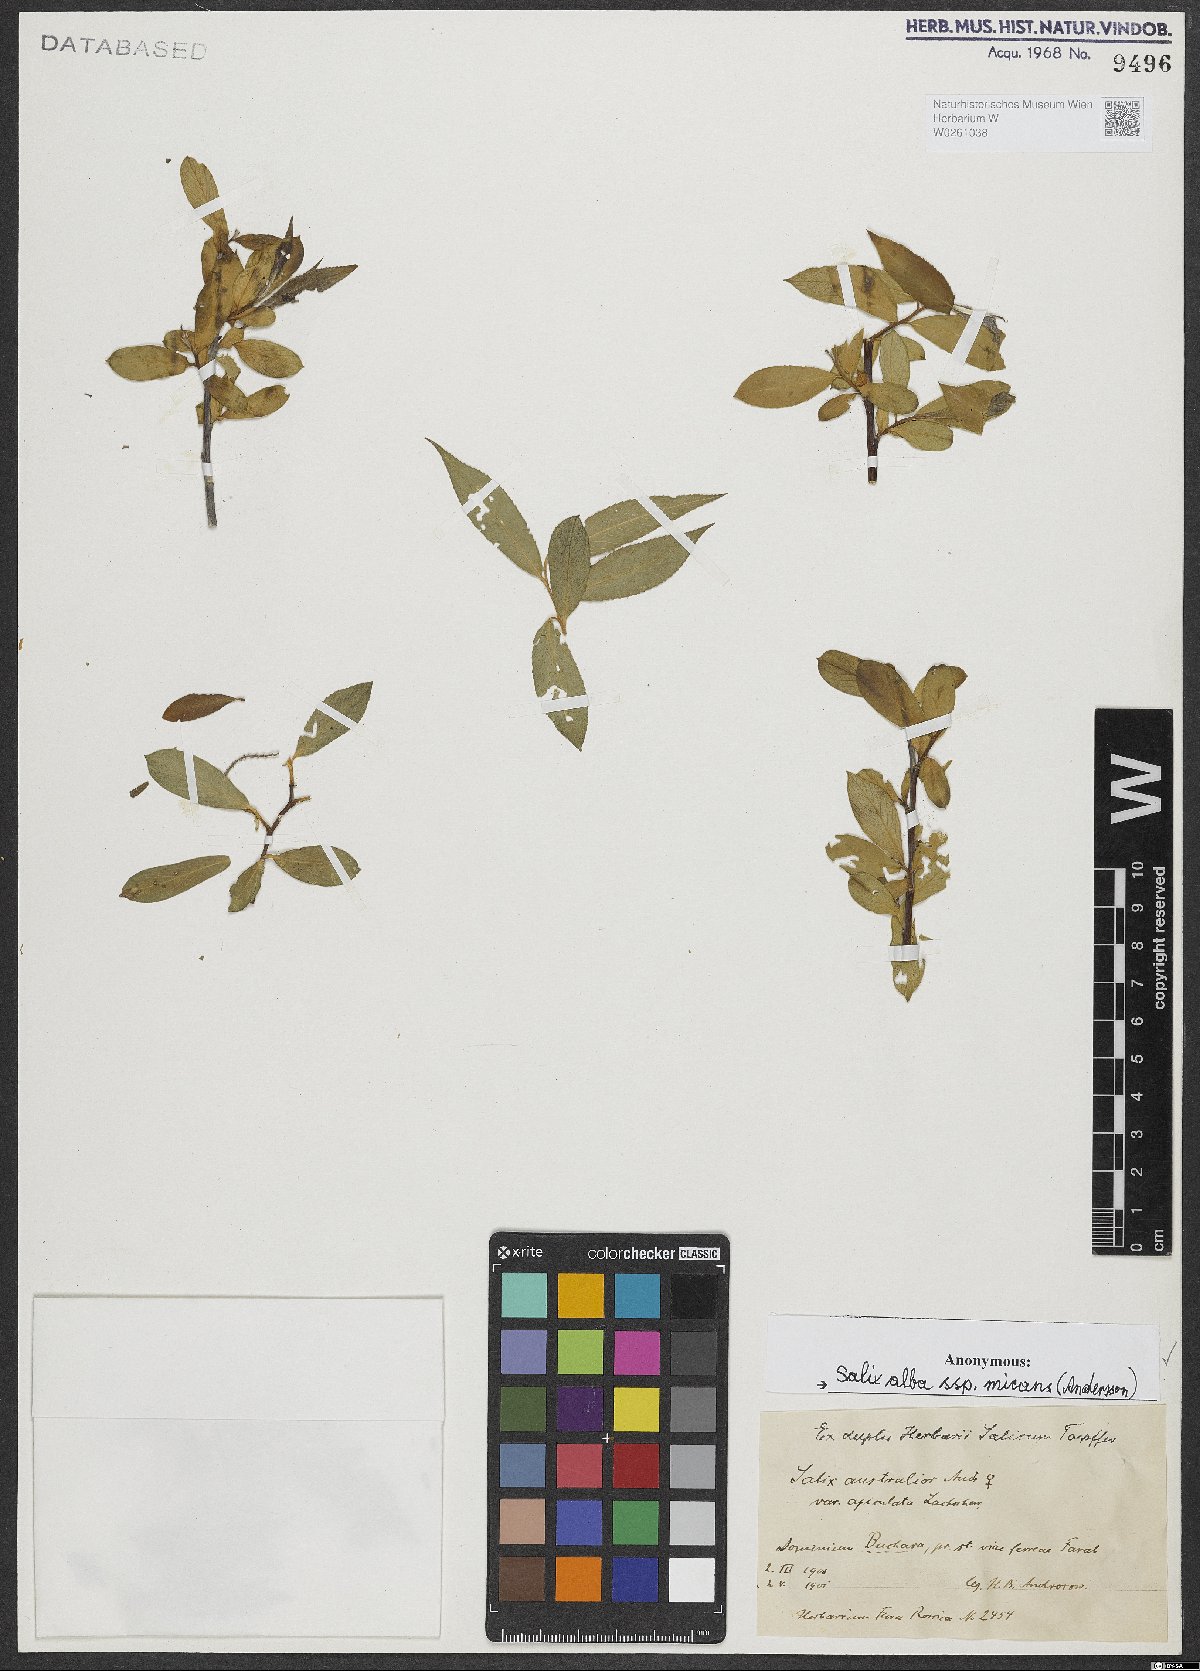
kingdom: Plantae
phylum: Tracheophyta
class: Magnoliopsida
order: Malpighiales
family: Salicaceae
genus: Salix
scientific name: Salix alba
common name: White willow
